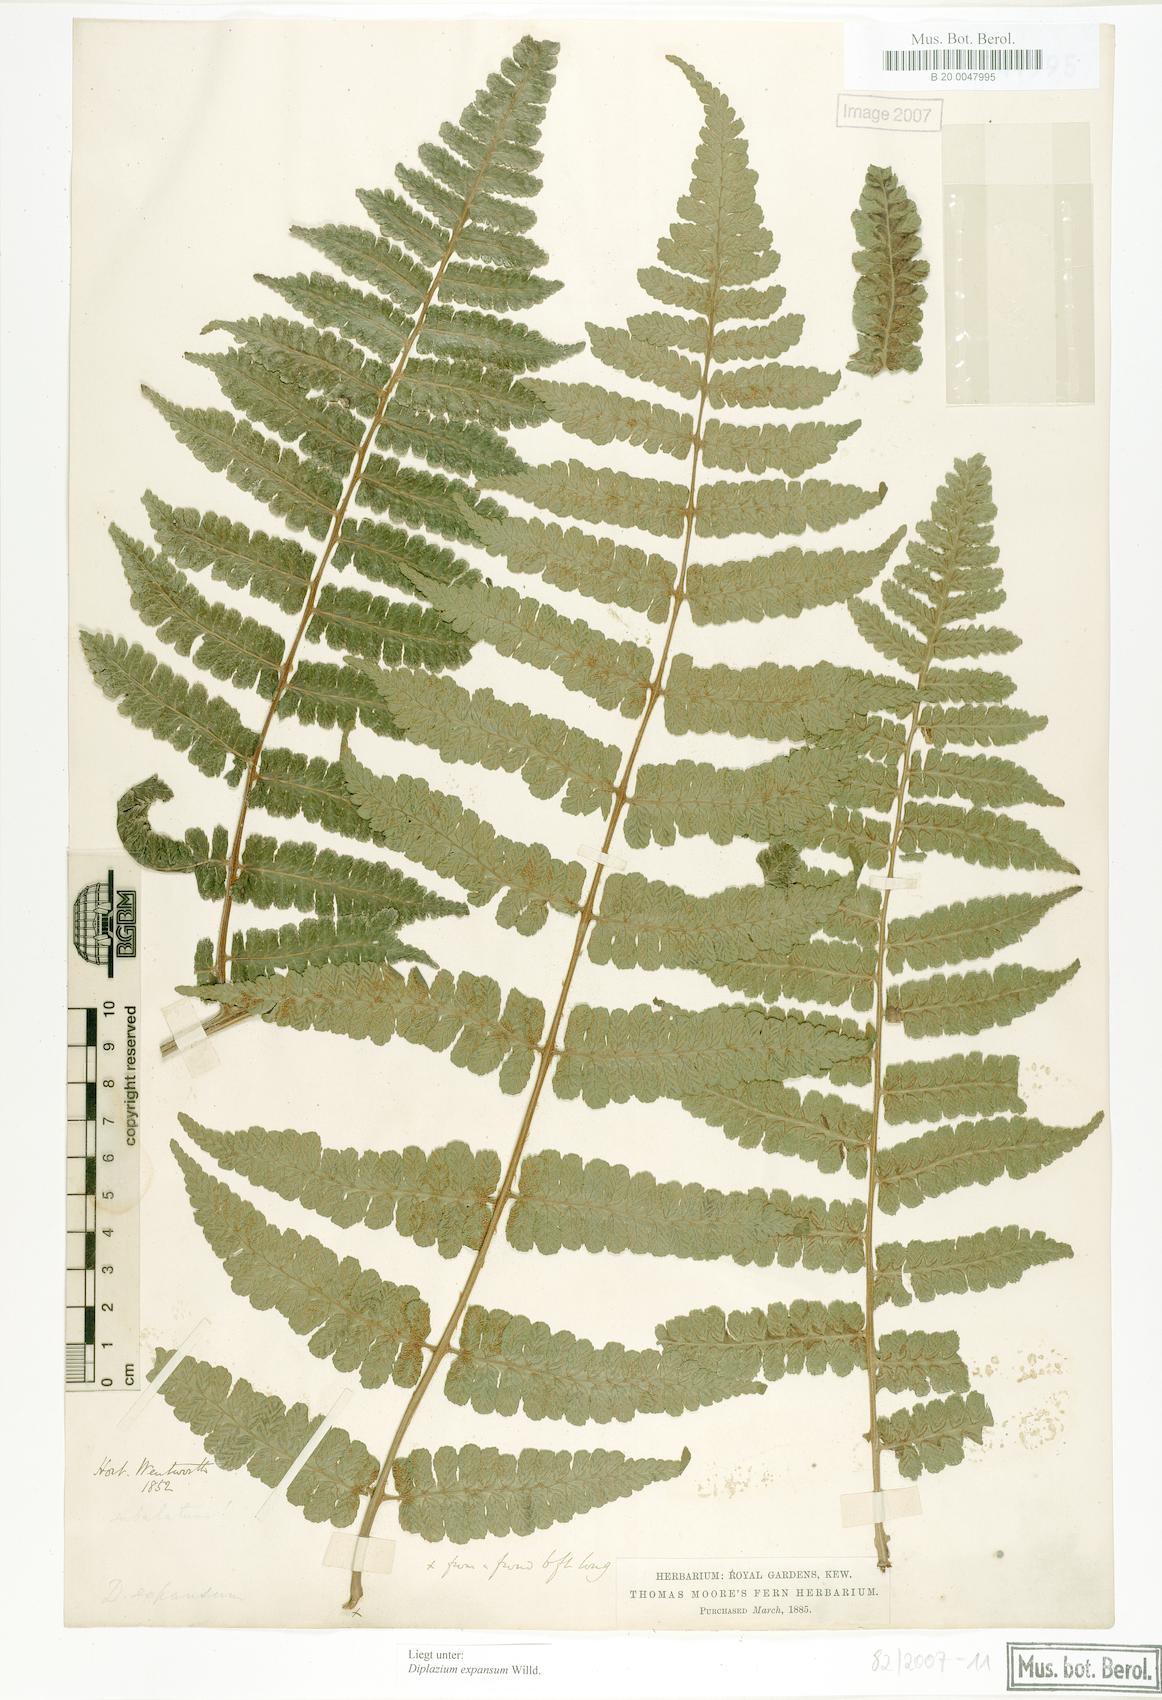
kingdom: Plantae
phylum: Tracheophyta
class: Polypodiopsida
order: Polypodiales
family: Athyriaceae
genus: Diplazium
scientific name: Diplazium expansum
